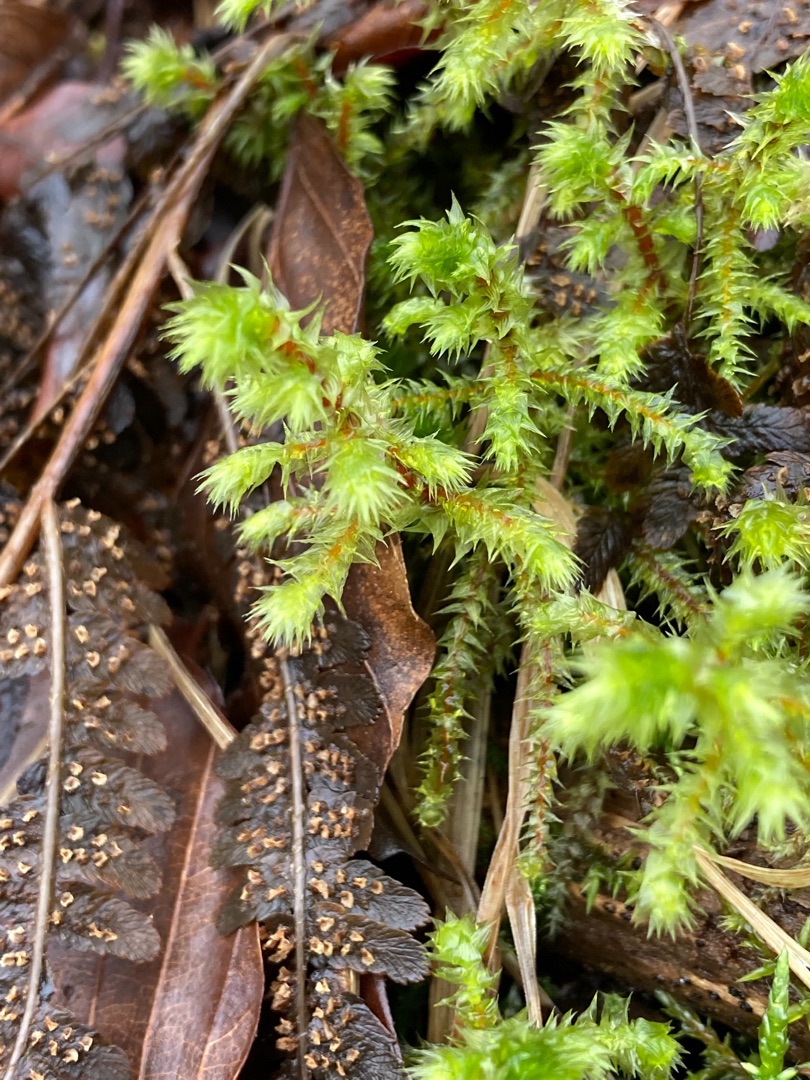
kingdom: Plantae
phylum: Bryophyta
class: Bryopsida
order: Hypnales
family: Hylocomiaceae
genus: Hylocomiadelphus
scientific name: Hylocomiadelphus triquetrus
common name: Stor kransemos
